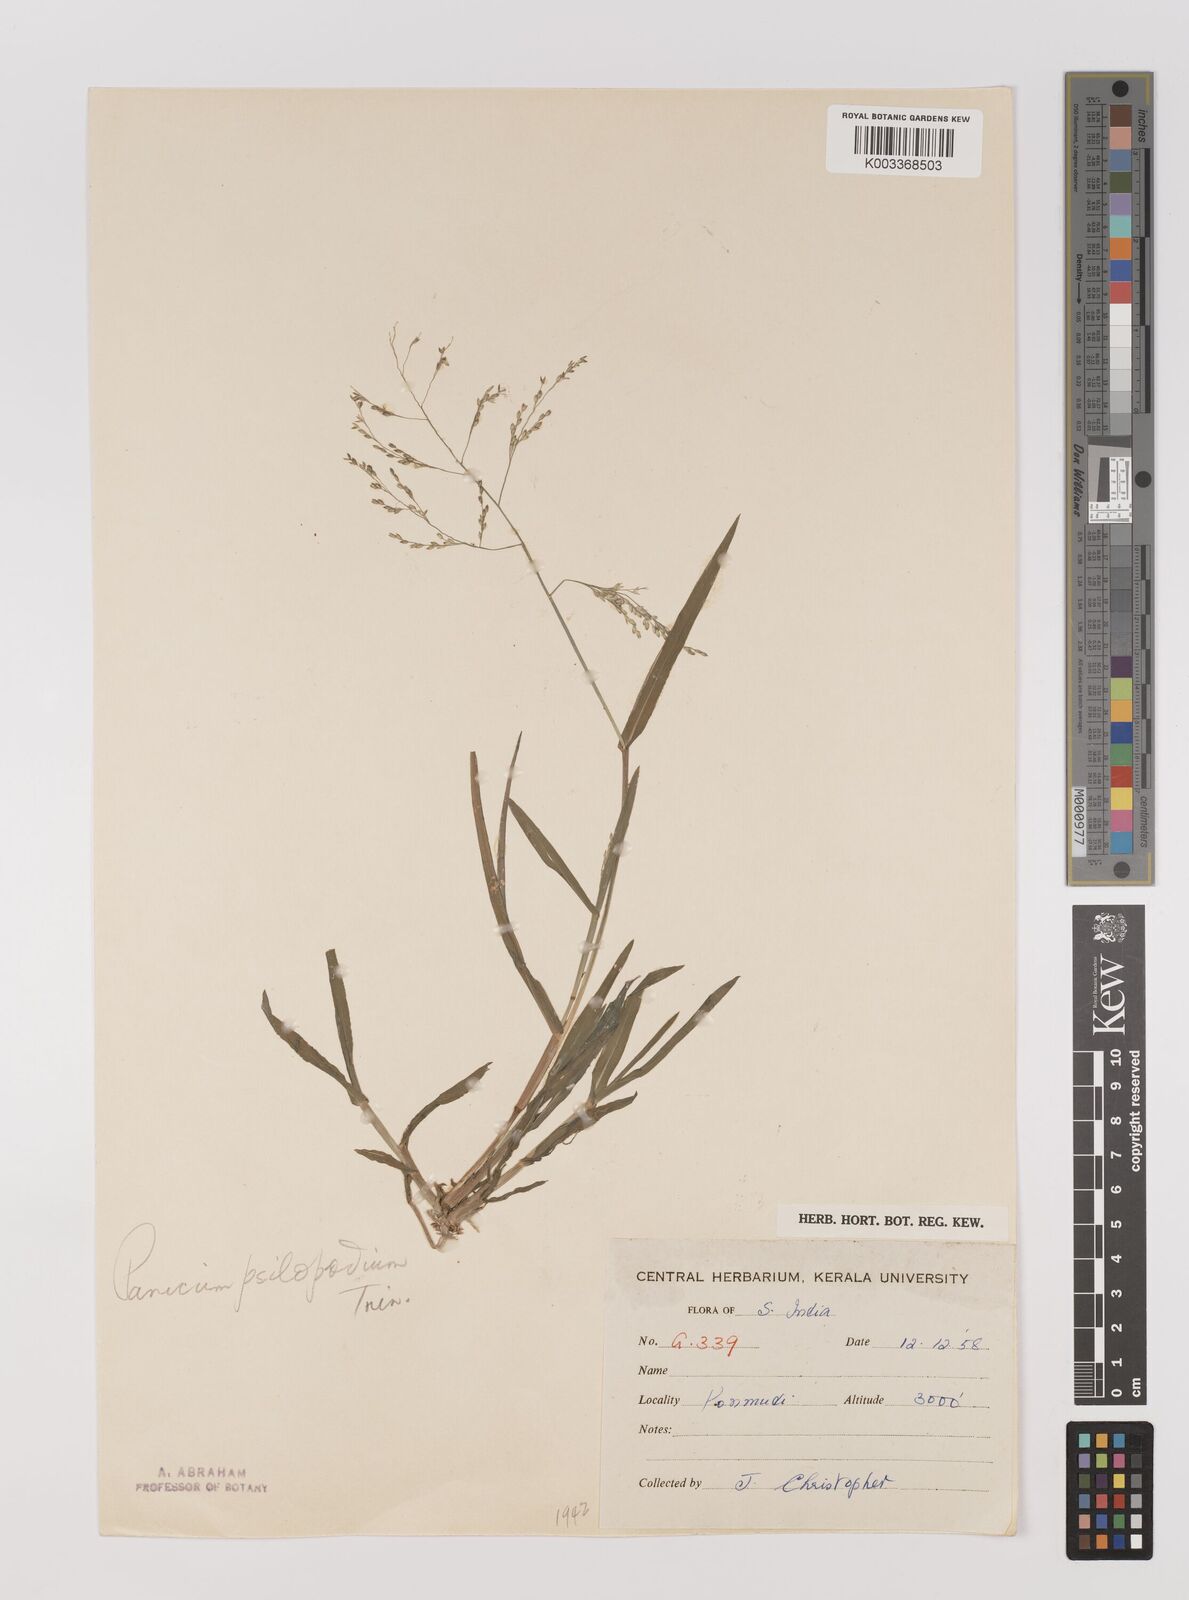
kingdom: Plantae
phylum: Tracheophyta
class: Liliopsida
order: Poales
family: Poaceae
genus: Panicum
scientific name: Panicum sumatrense
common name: Little millet
